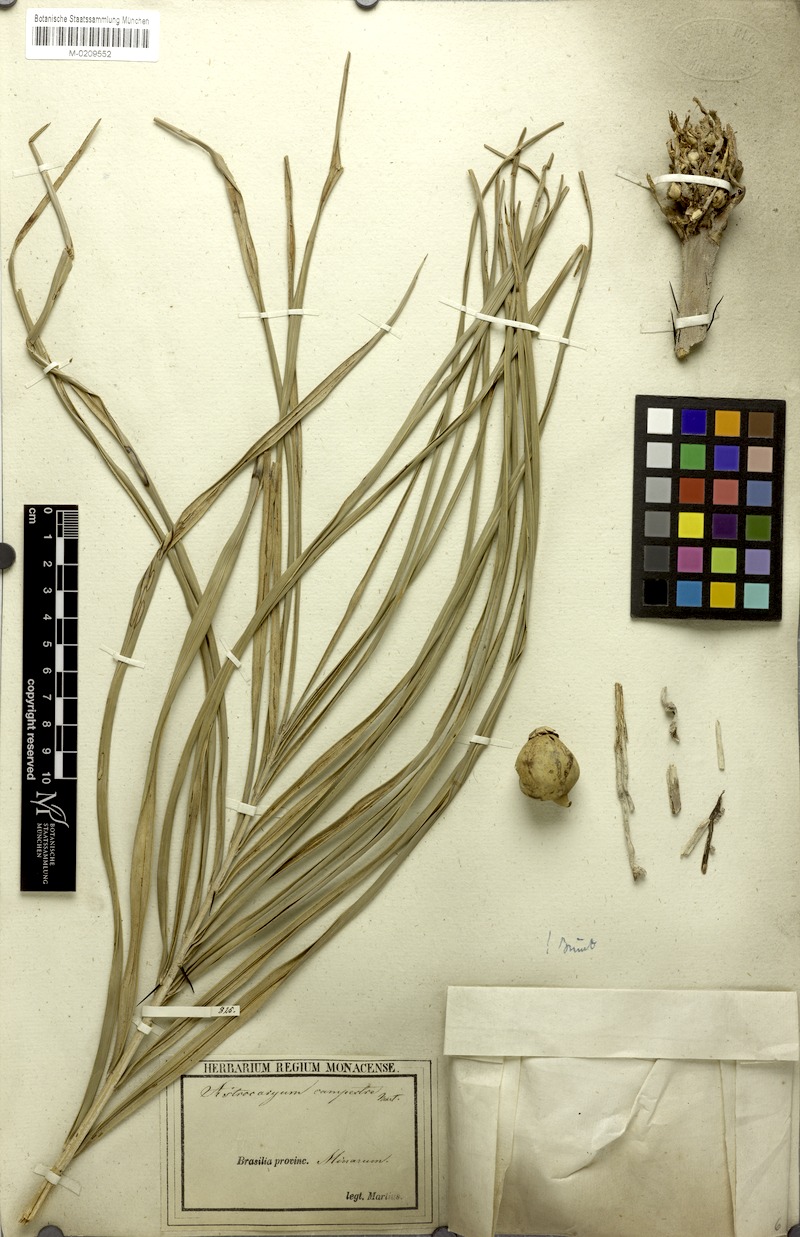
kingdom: Plantae
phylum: Tracheophyta
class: Liliopsida
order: Arecales
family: Arecaceae
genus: Astrocaryum
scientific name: Astrocaryum campestre
